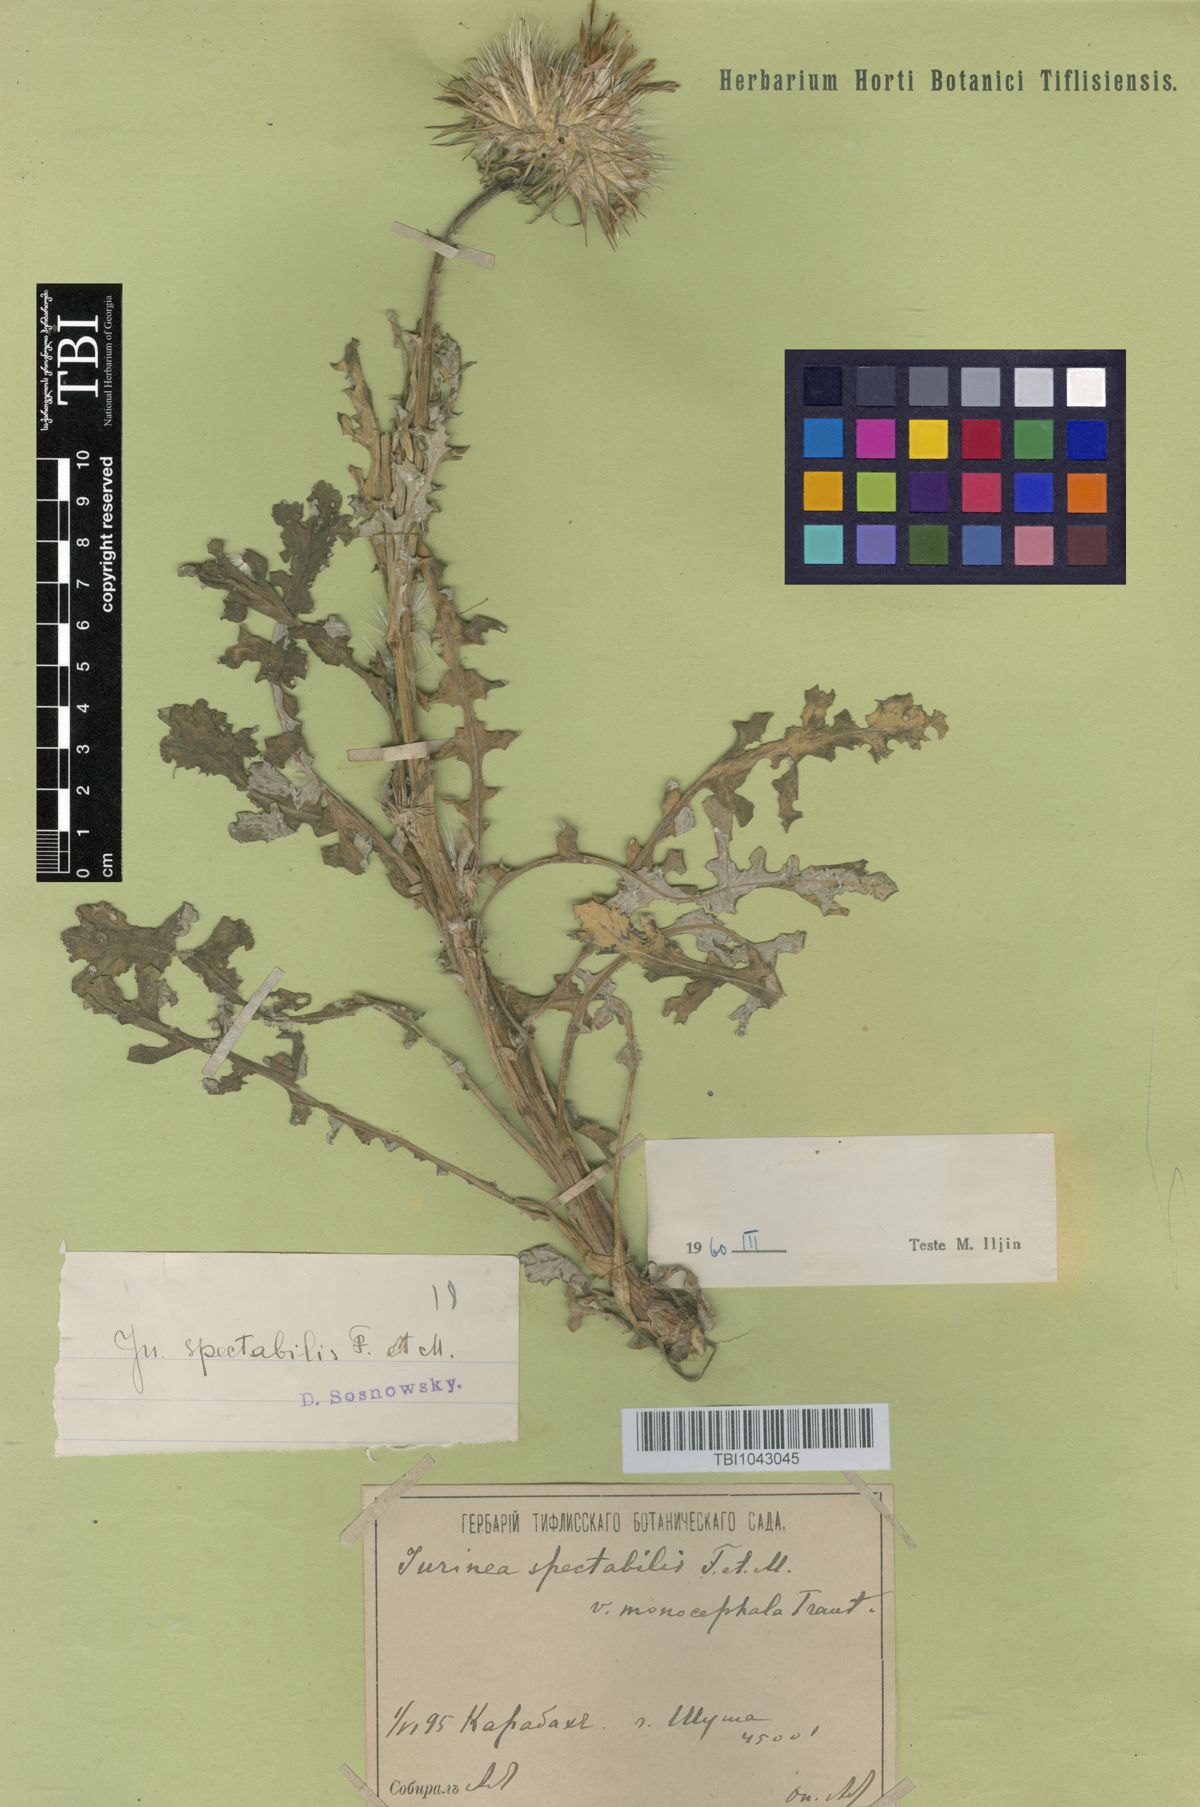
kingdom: Plantae
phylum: Tracheophyta
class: Magnoliopsida
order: Asterales
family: Asteraceae
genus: Jurinea
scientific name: Jurinea spectabilis
